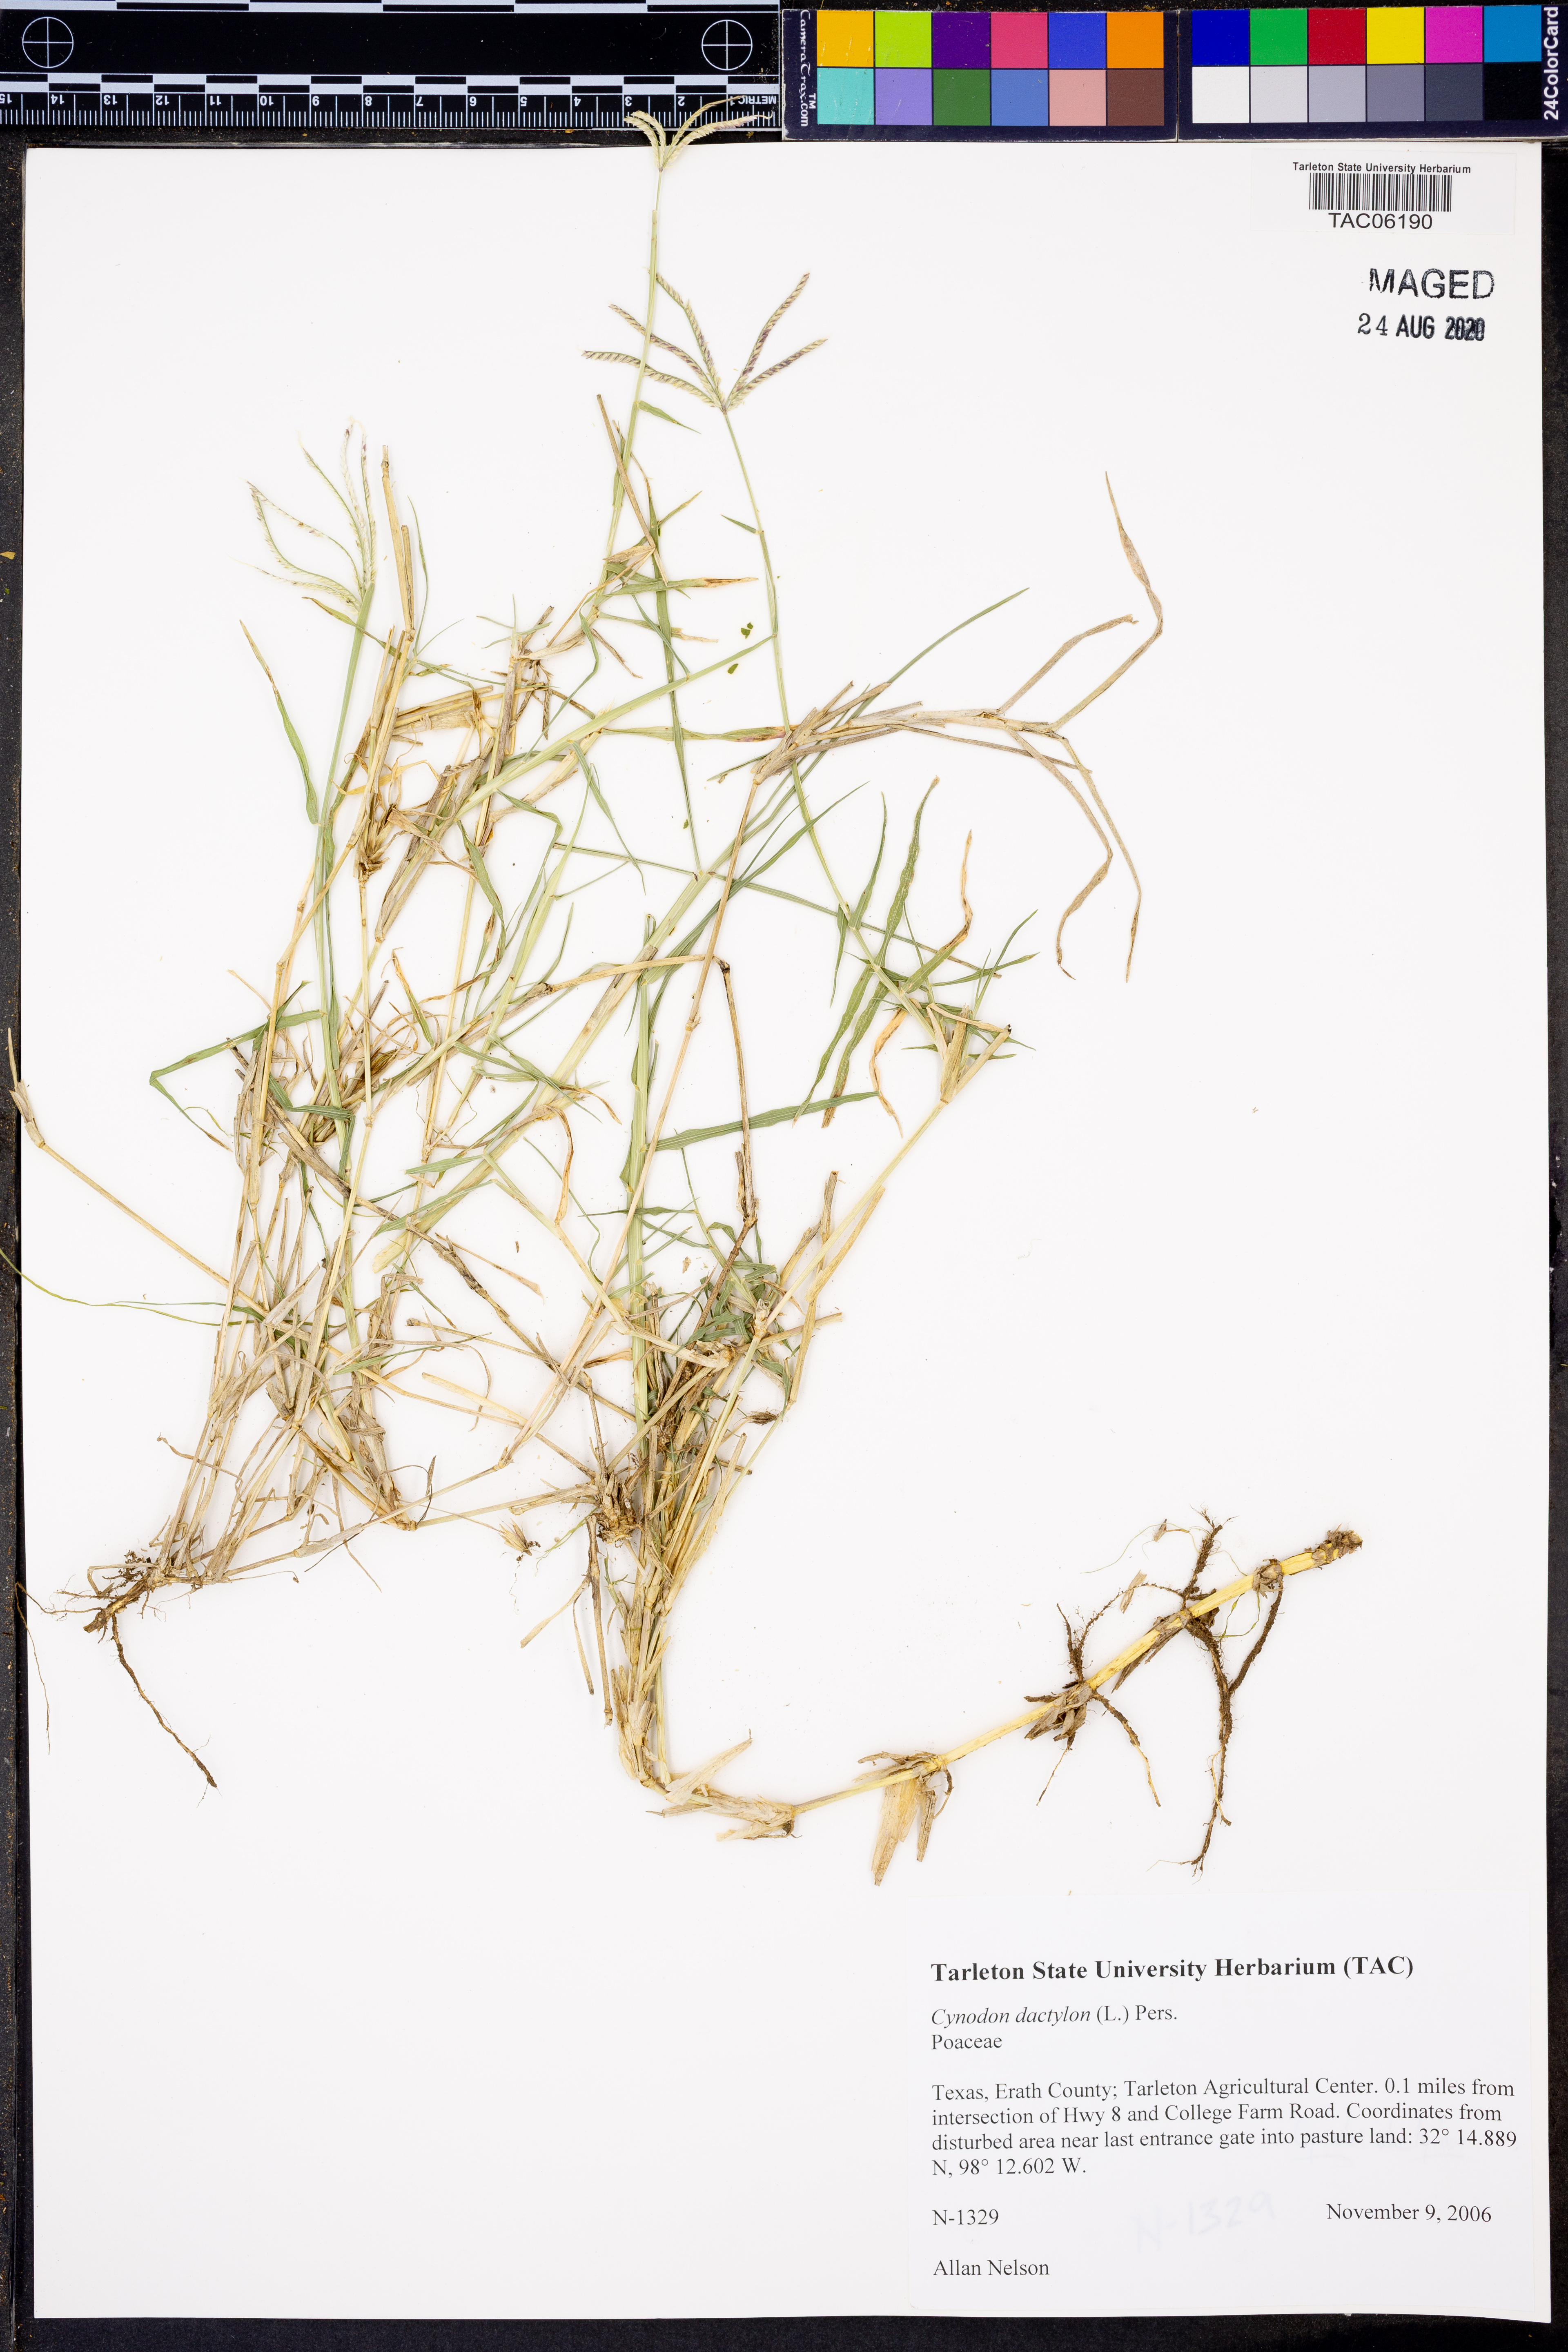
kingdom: Plantae
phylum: Tracheophyta
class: Liliopsida
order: Poales
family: Poaceae
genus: Cynodon
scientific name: Cynodon dactylon
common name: Bermuda grass
